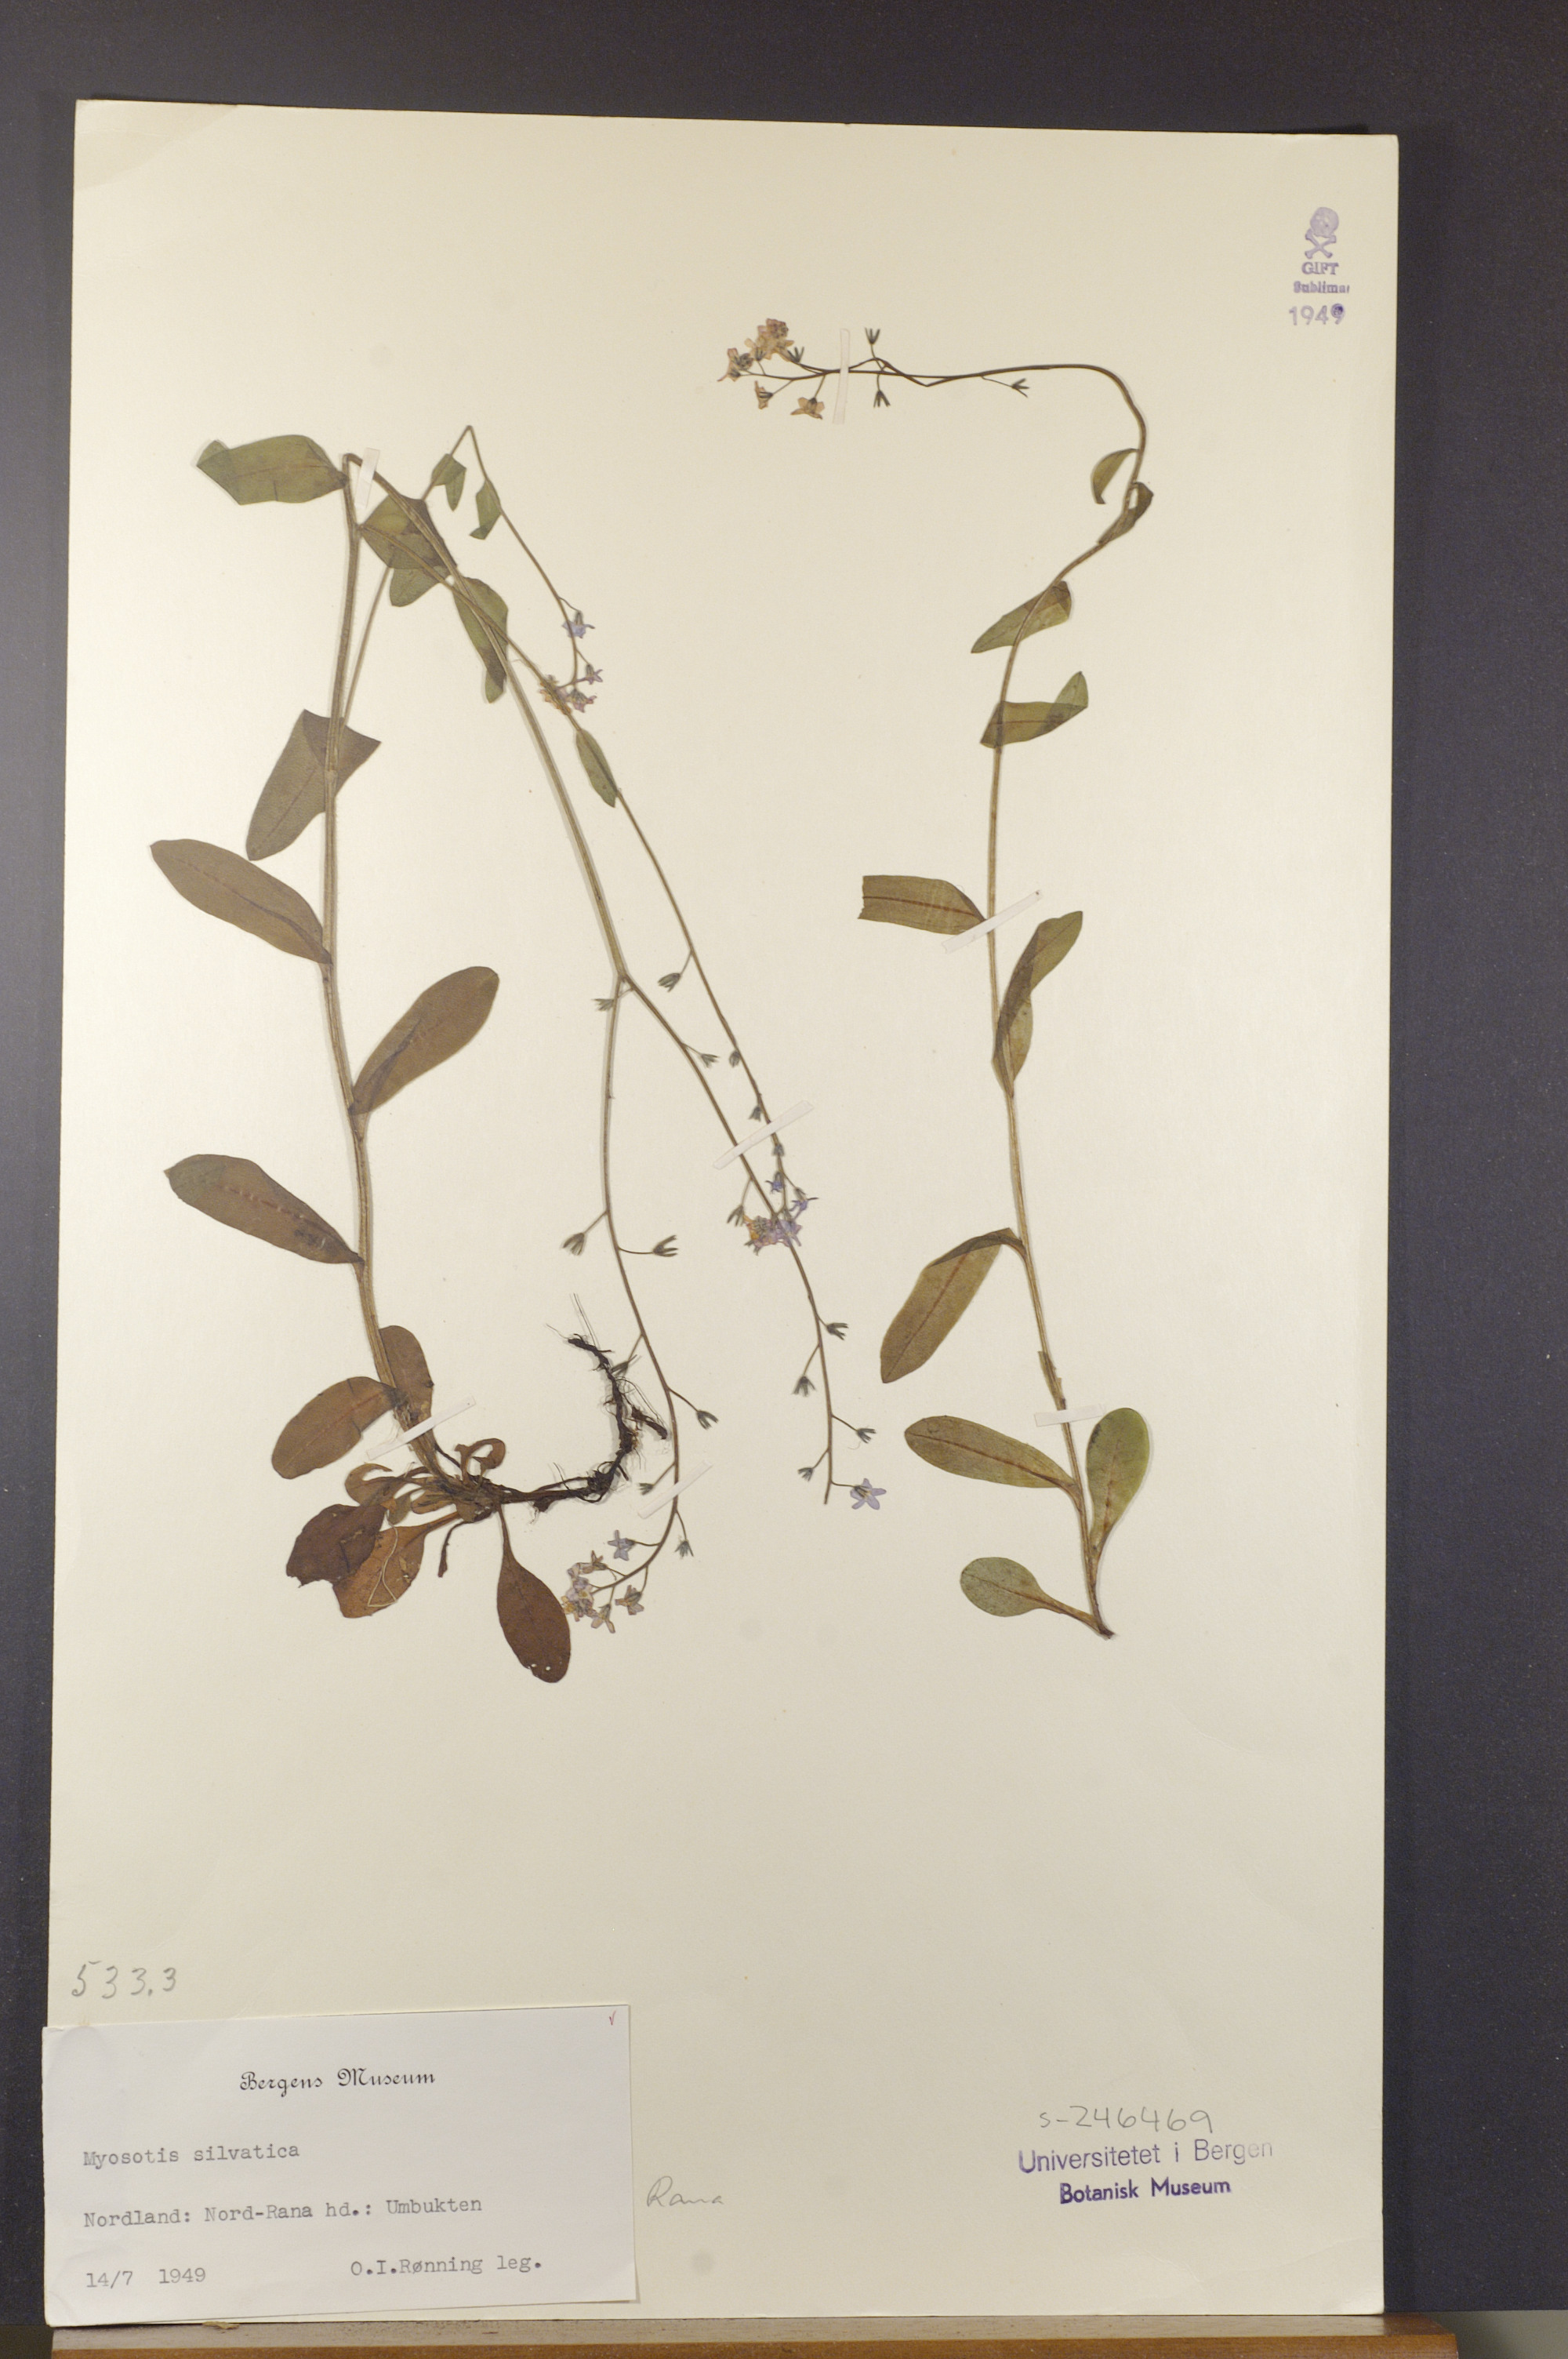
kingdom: Plantae
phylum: Tracheophyta
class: Magnoliopsida
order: Boraginales
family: Boraginaceae
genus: Myosotis
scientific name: Myosotis decumbens
